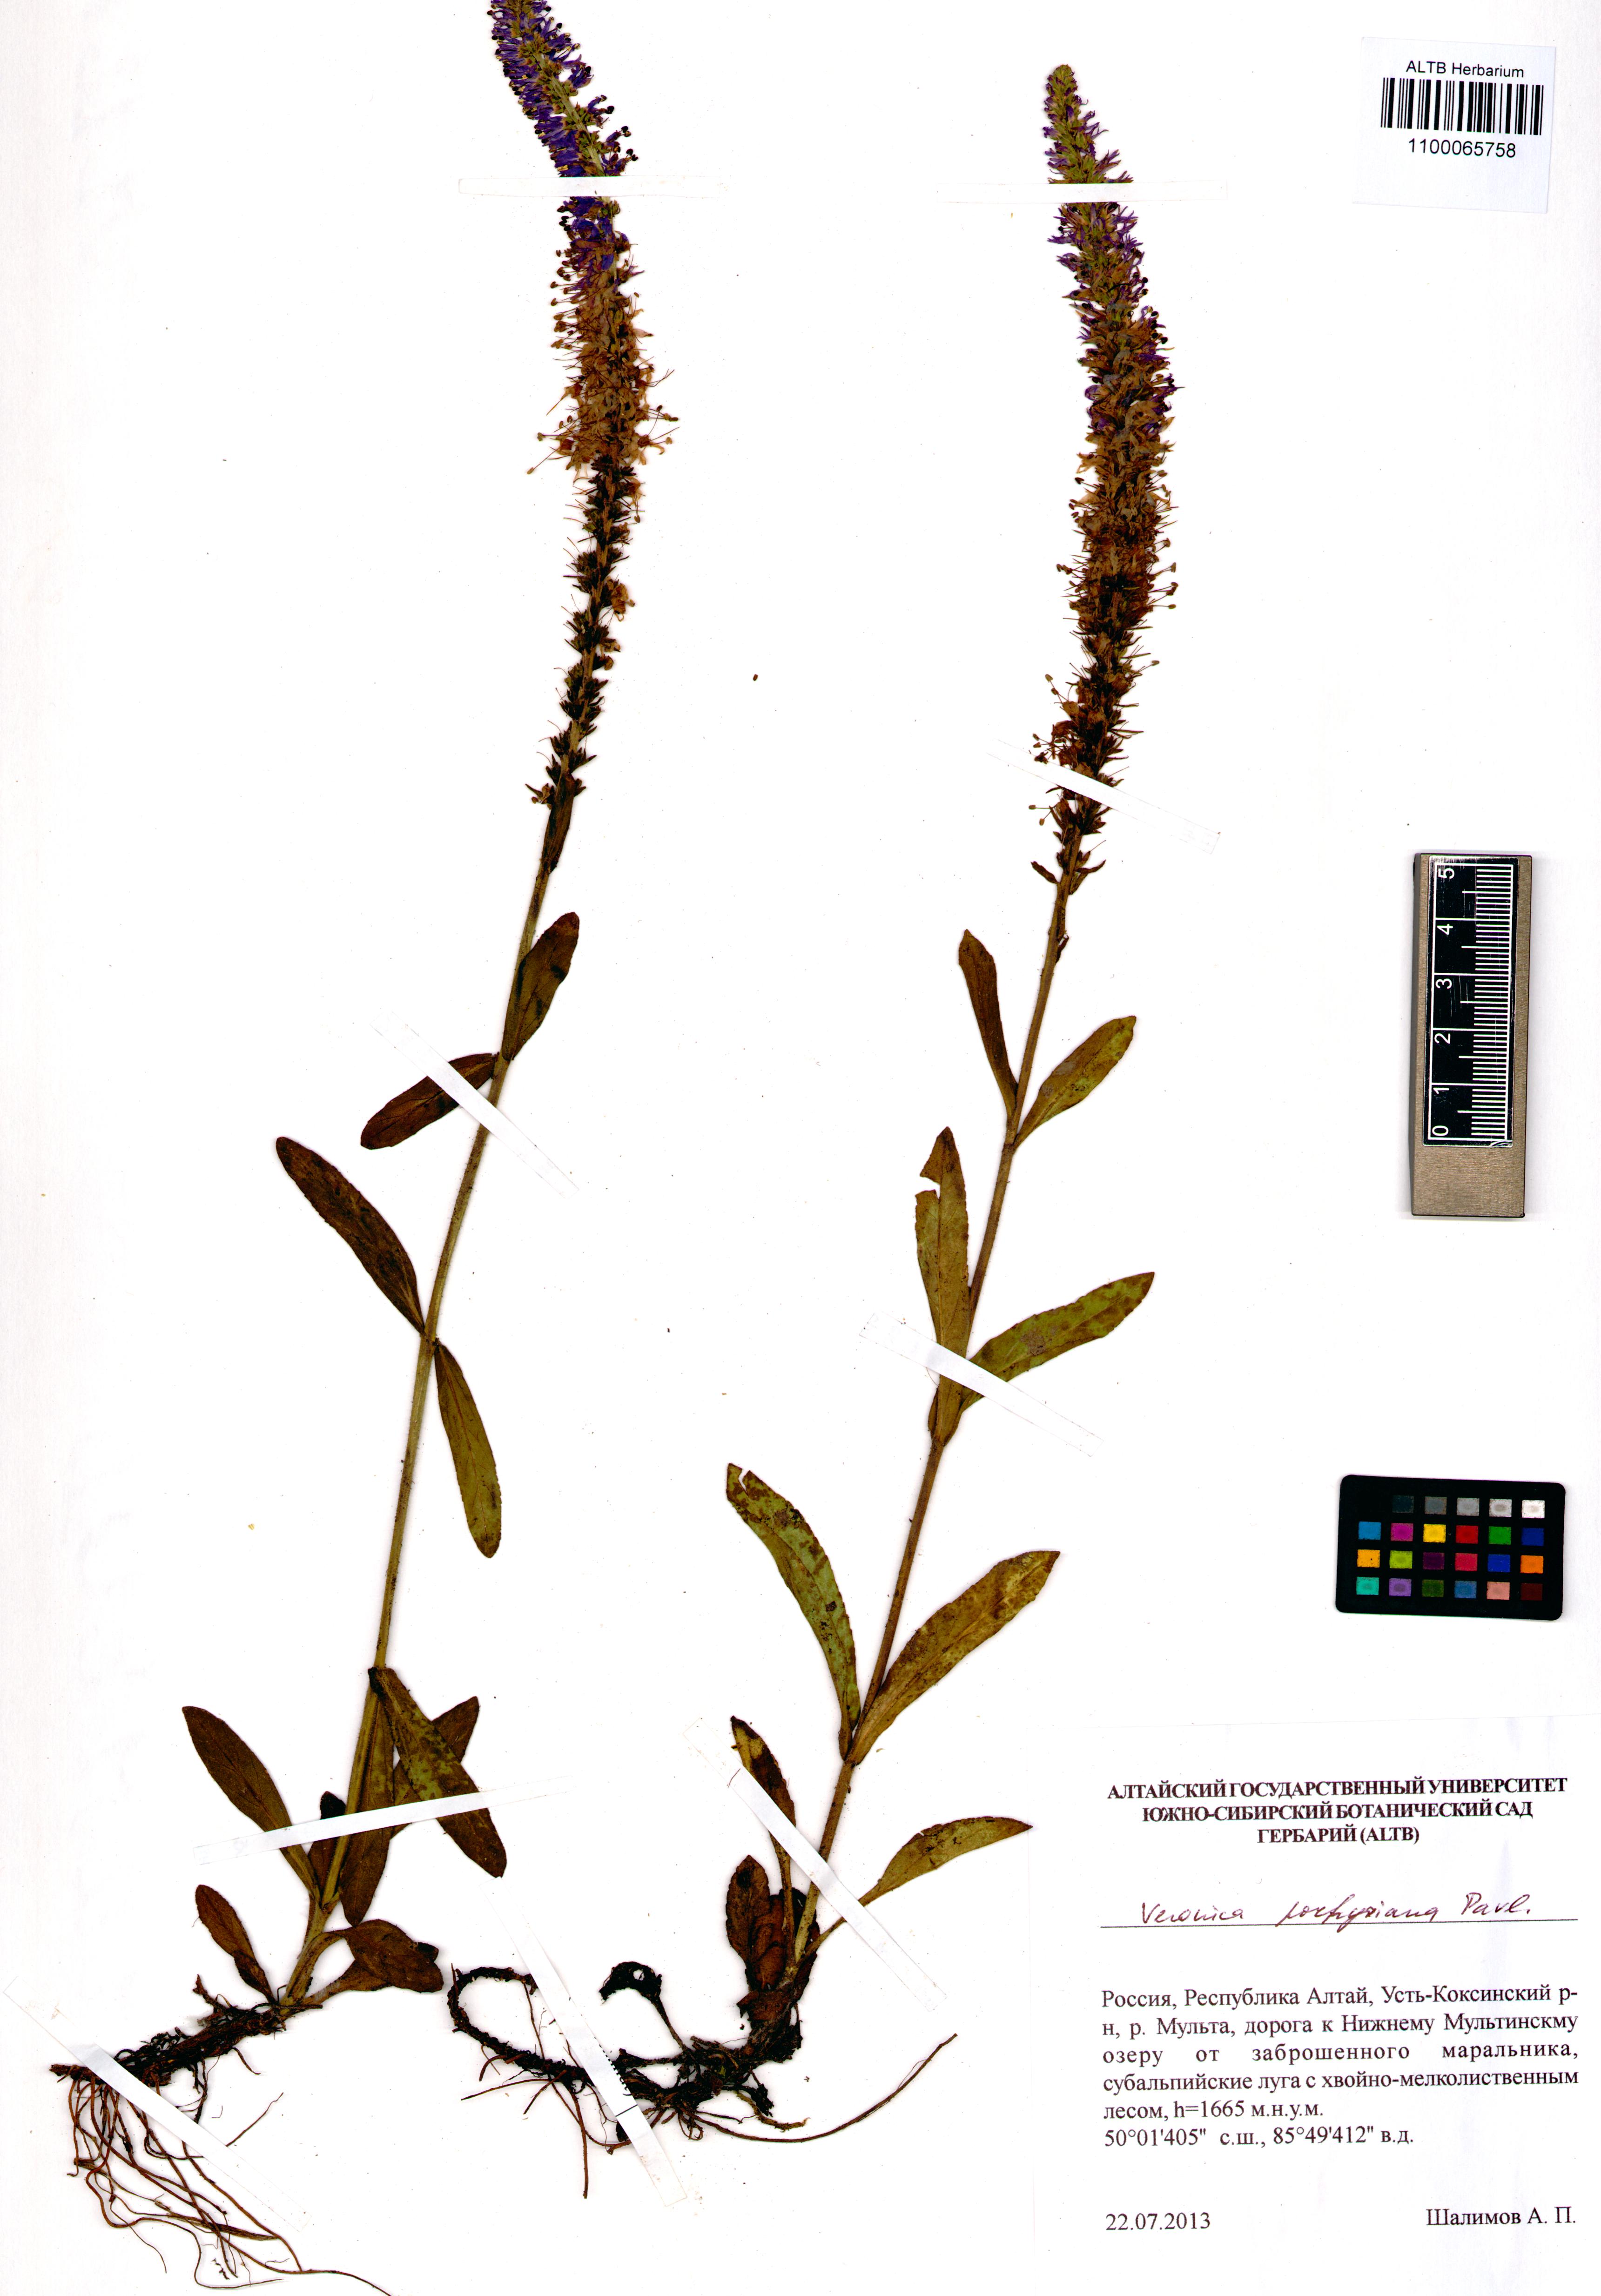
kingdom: Plantae
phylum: Tracheophyta
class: Magnoliopsida
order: Lamiales
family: Plantaginaceae
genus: Veronica
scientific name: Veronica porphyriana
